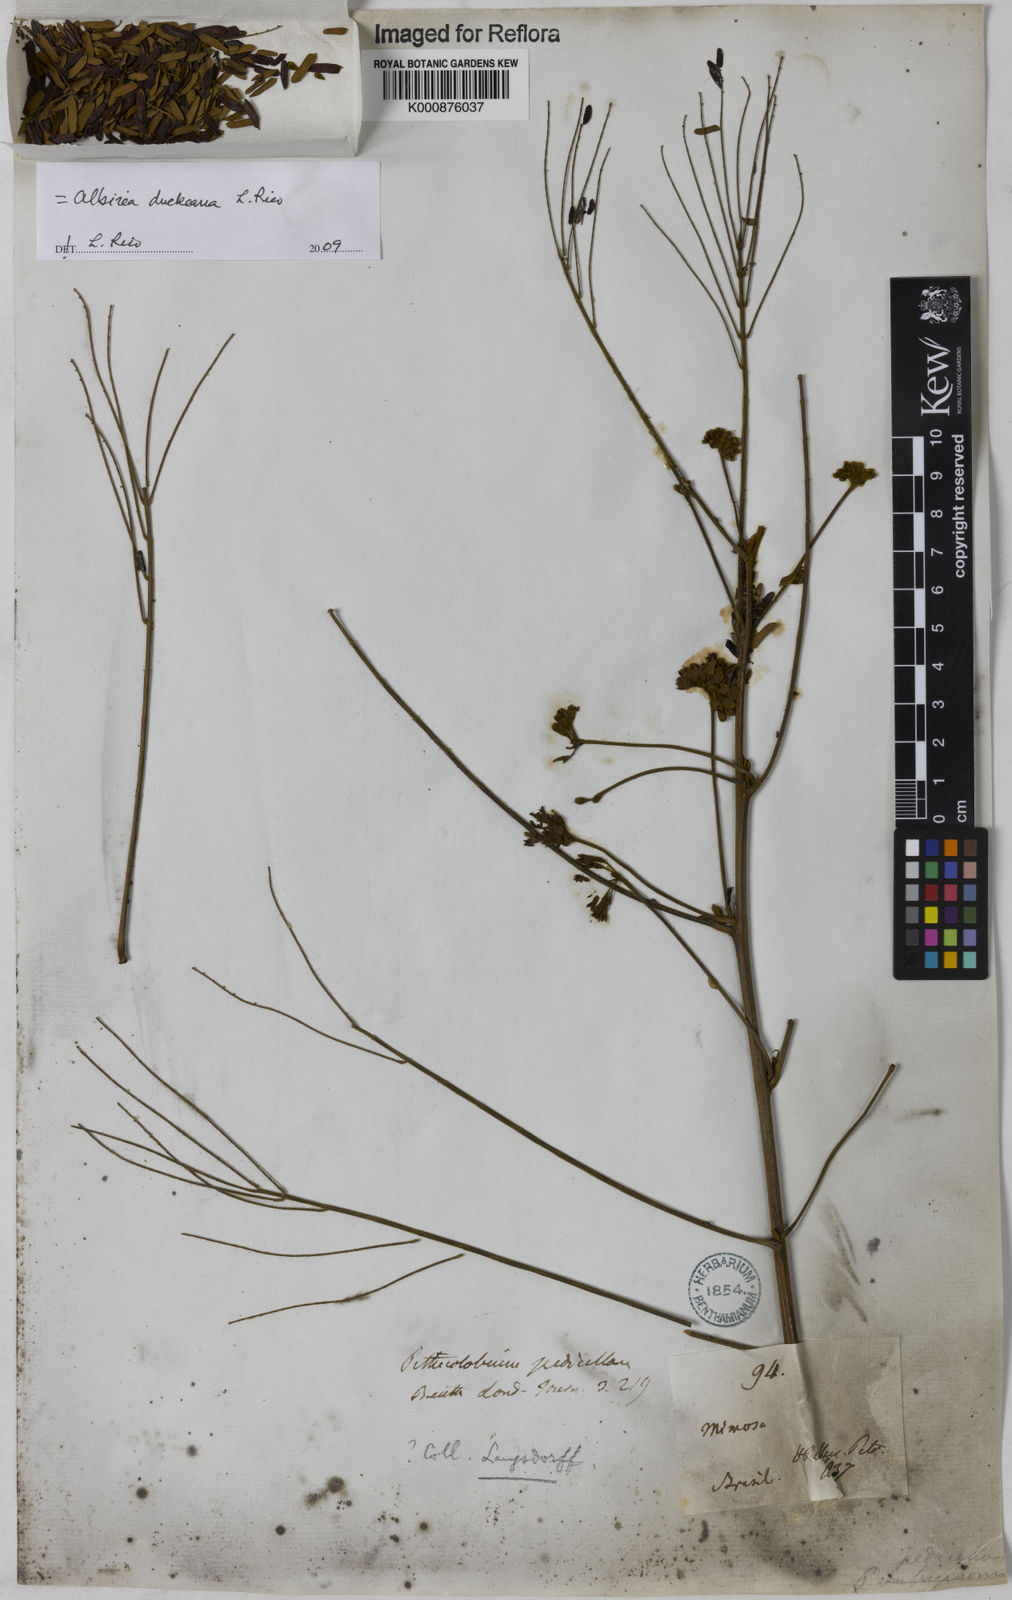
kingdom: Plantae
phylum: Tracheophyta
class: Magnoliopsida
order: Fabales
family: Fabaceae
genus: Balizia
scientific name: Balizia elegans
